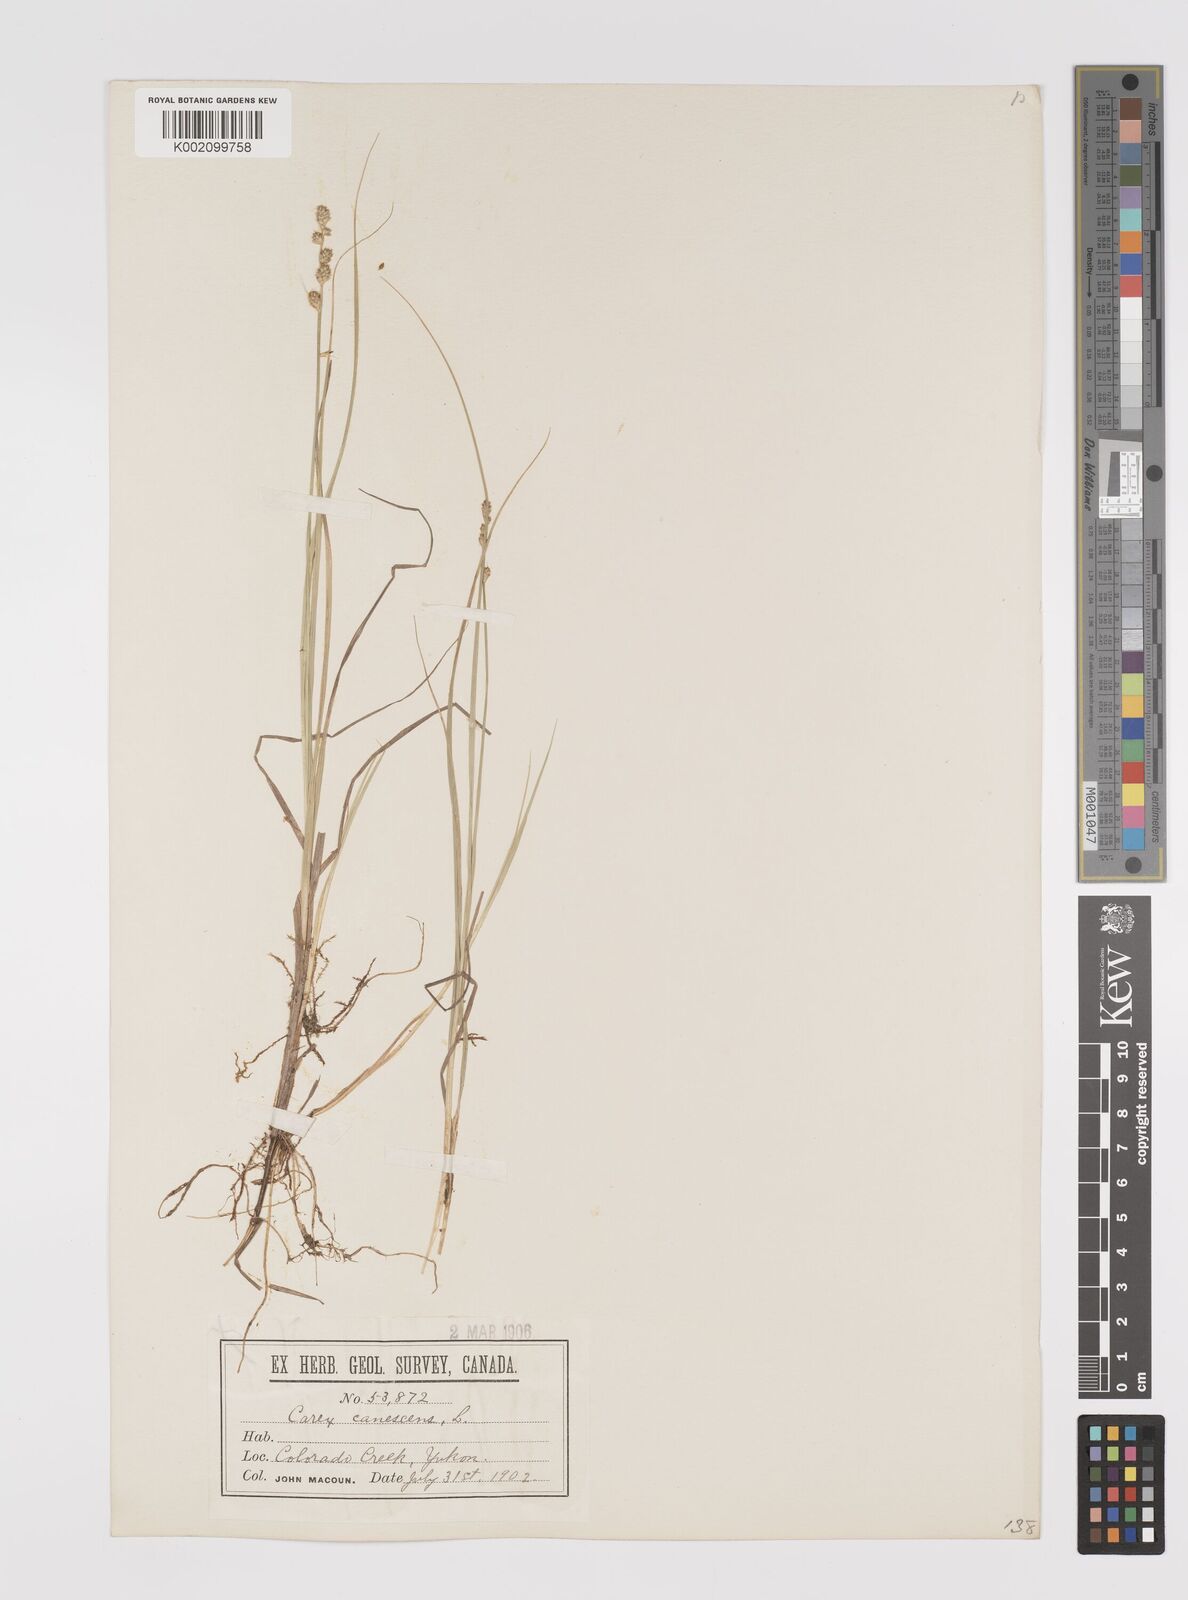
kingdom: Plantae
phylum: Tracheophyta
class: Liliopsida
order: Poales
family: Cyperaceae
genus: Carex
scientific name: Carex curta
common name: White sedge
